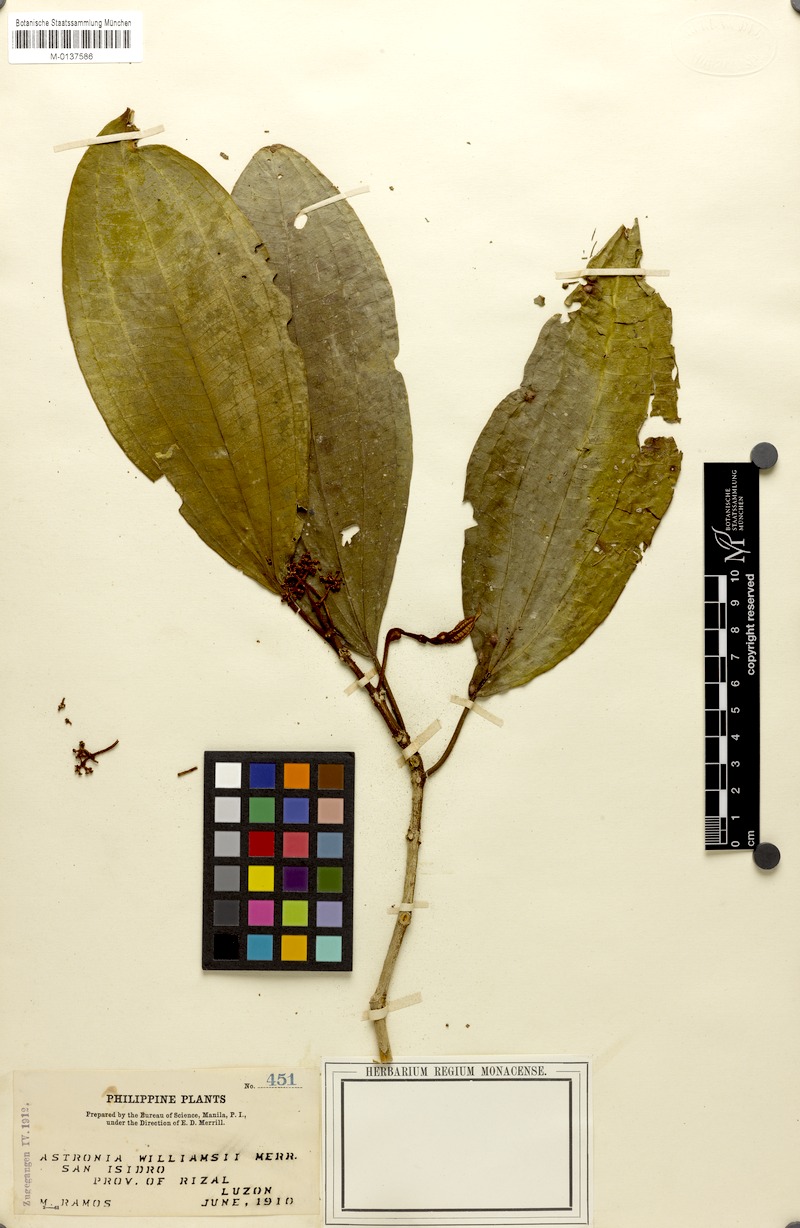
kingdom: Plantae
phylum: Tracheophyta
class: Magnoliopsida
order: Myrtales
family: Melastomataceae
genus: Astronia
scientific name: Astronia williamsii
